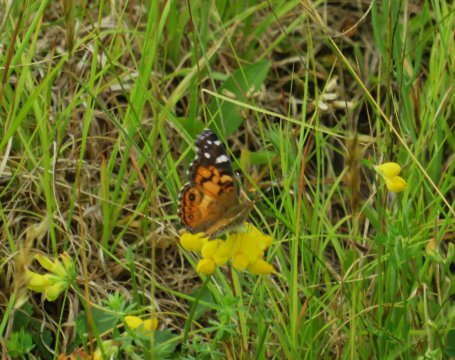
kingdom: Animalia
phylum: Arthropoda
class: Insecta
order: Lepidoptera
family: Nymphalidae
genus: Vanessa
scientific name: Vanessa virginiensis
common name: American Lady
